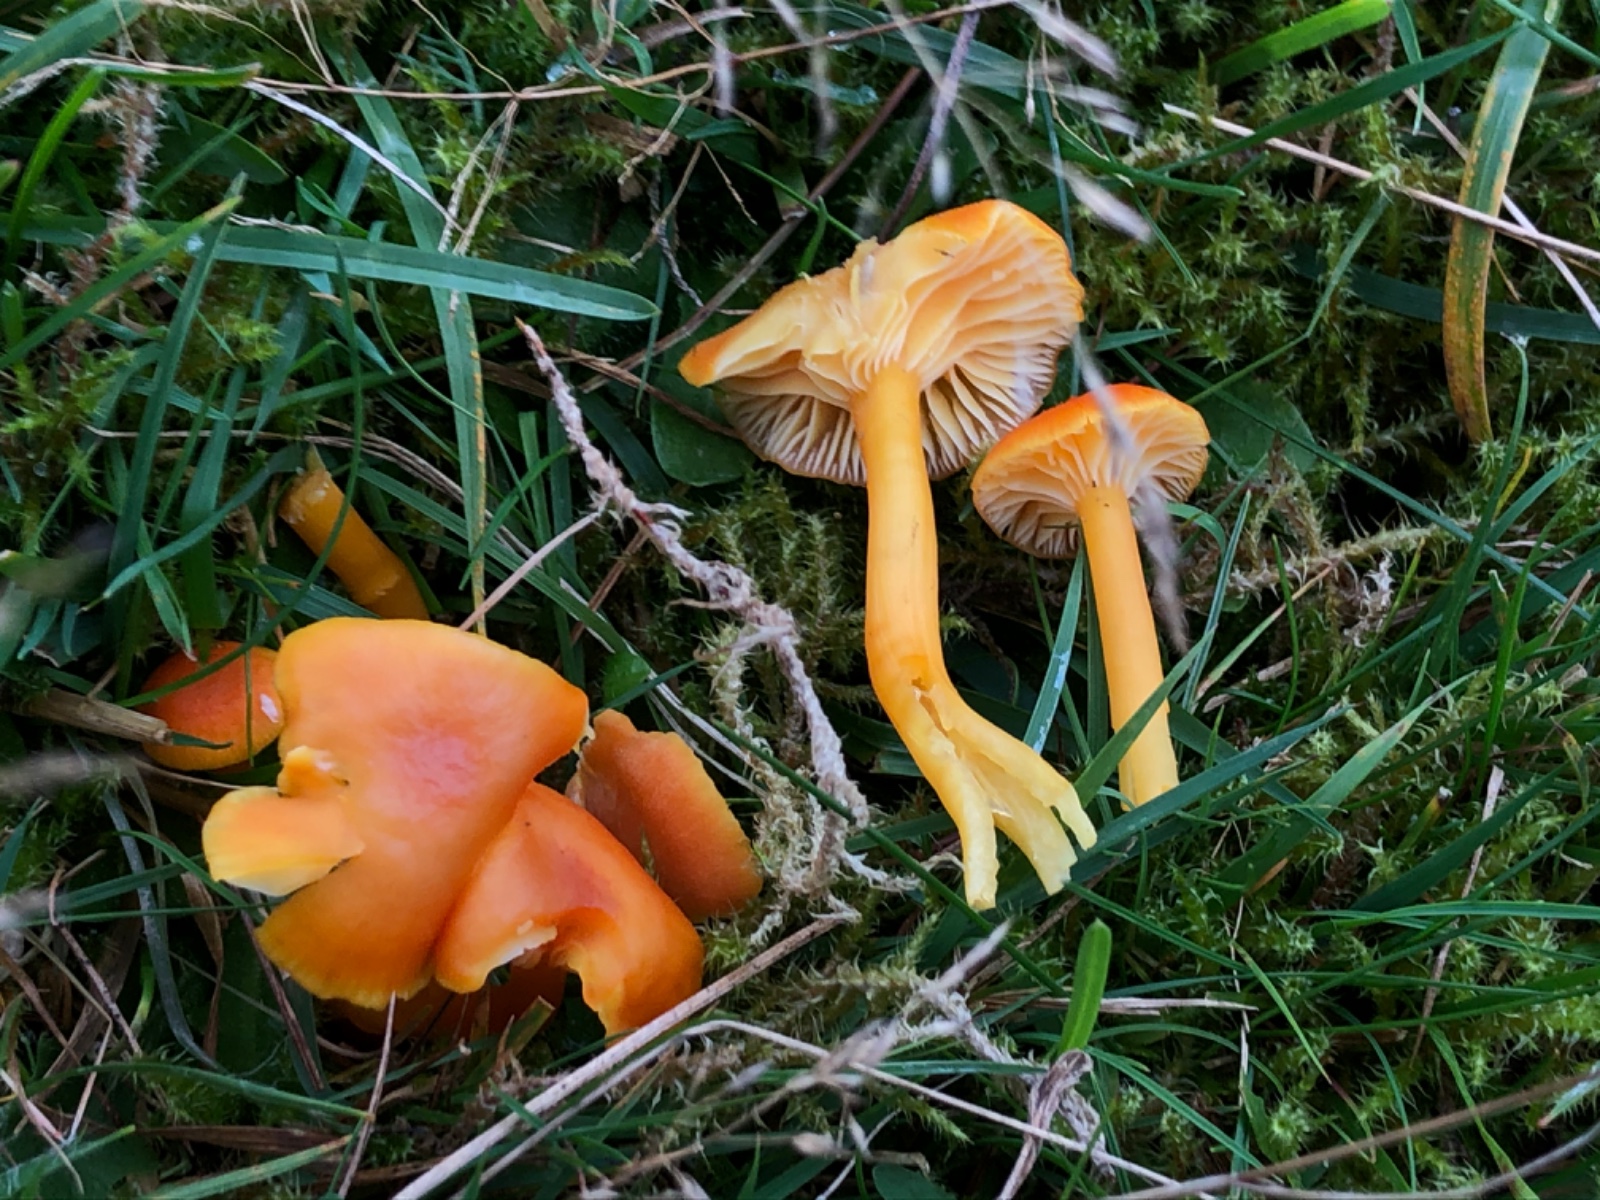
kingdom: Fungi
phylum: Basidiomycota
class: Agaricomycetes
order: Agaricales
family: Hygrophoraceae
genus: Hygrocybe
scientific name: Hygrocybe reidii
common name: honning-vokshat
